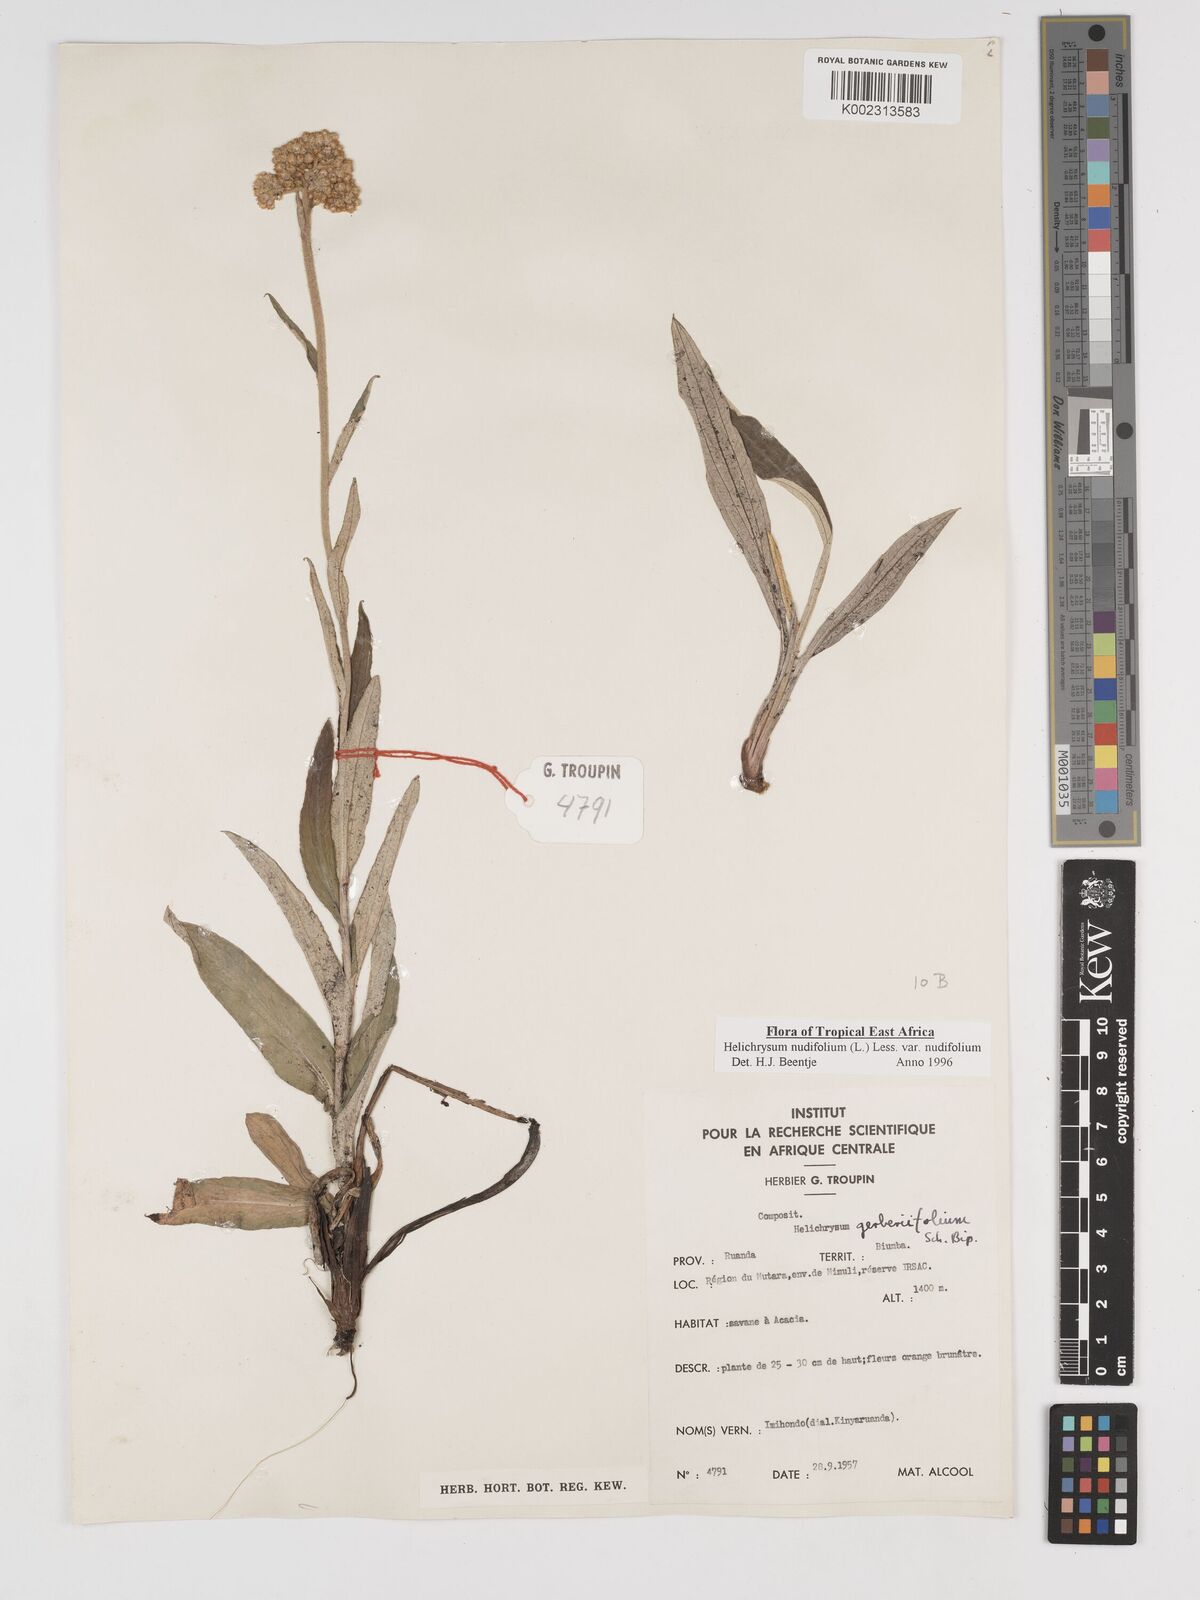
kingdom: Plantae
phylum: Tracheophyta
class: Magnoliopsida
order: Asterales
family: Asteraceae
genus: Helichrysum
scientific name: Helichrysum nudifolium
